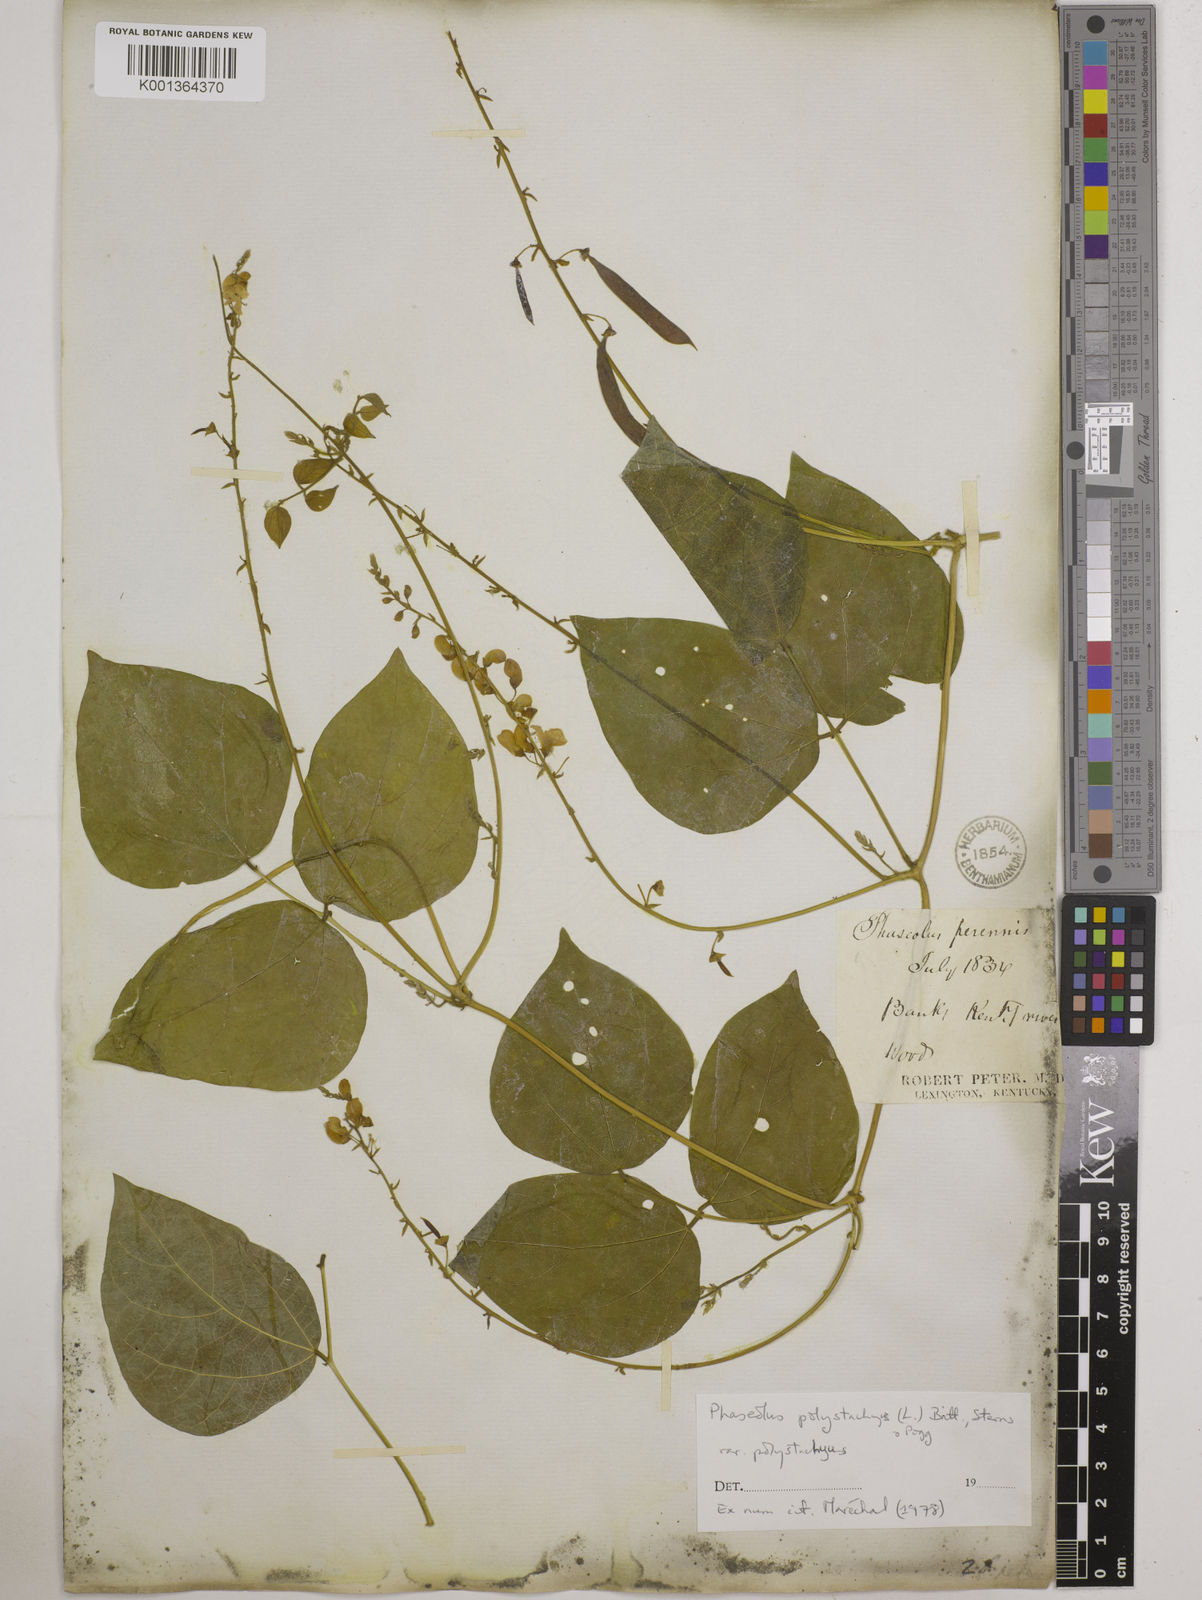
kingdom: Plantae
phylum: Tracheophyta
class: Magnoliopsida
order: Fabales
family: Fabaceae
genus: Phaseolus
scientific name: Phaseolus
